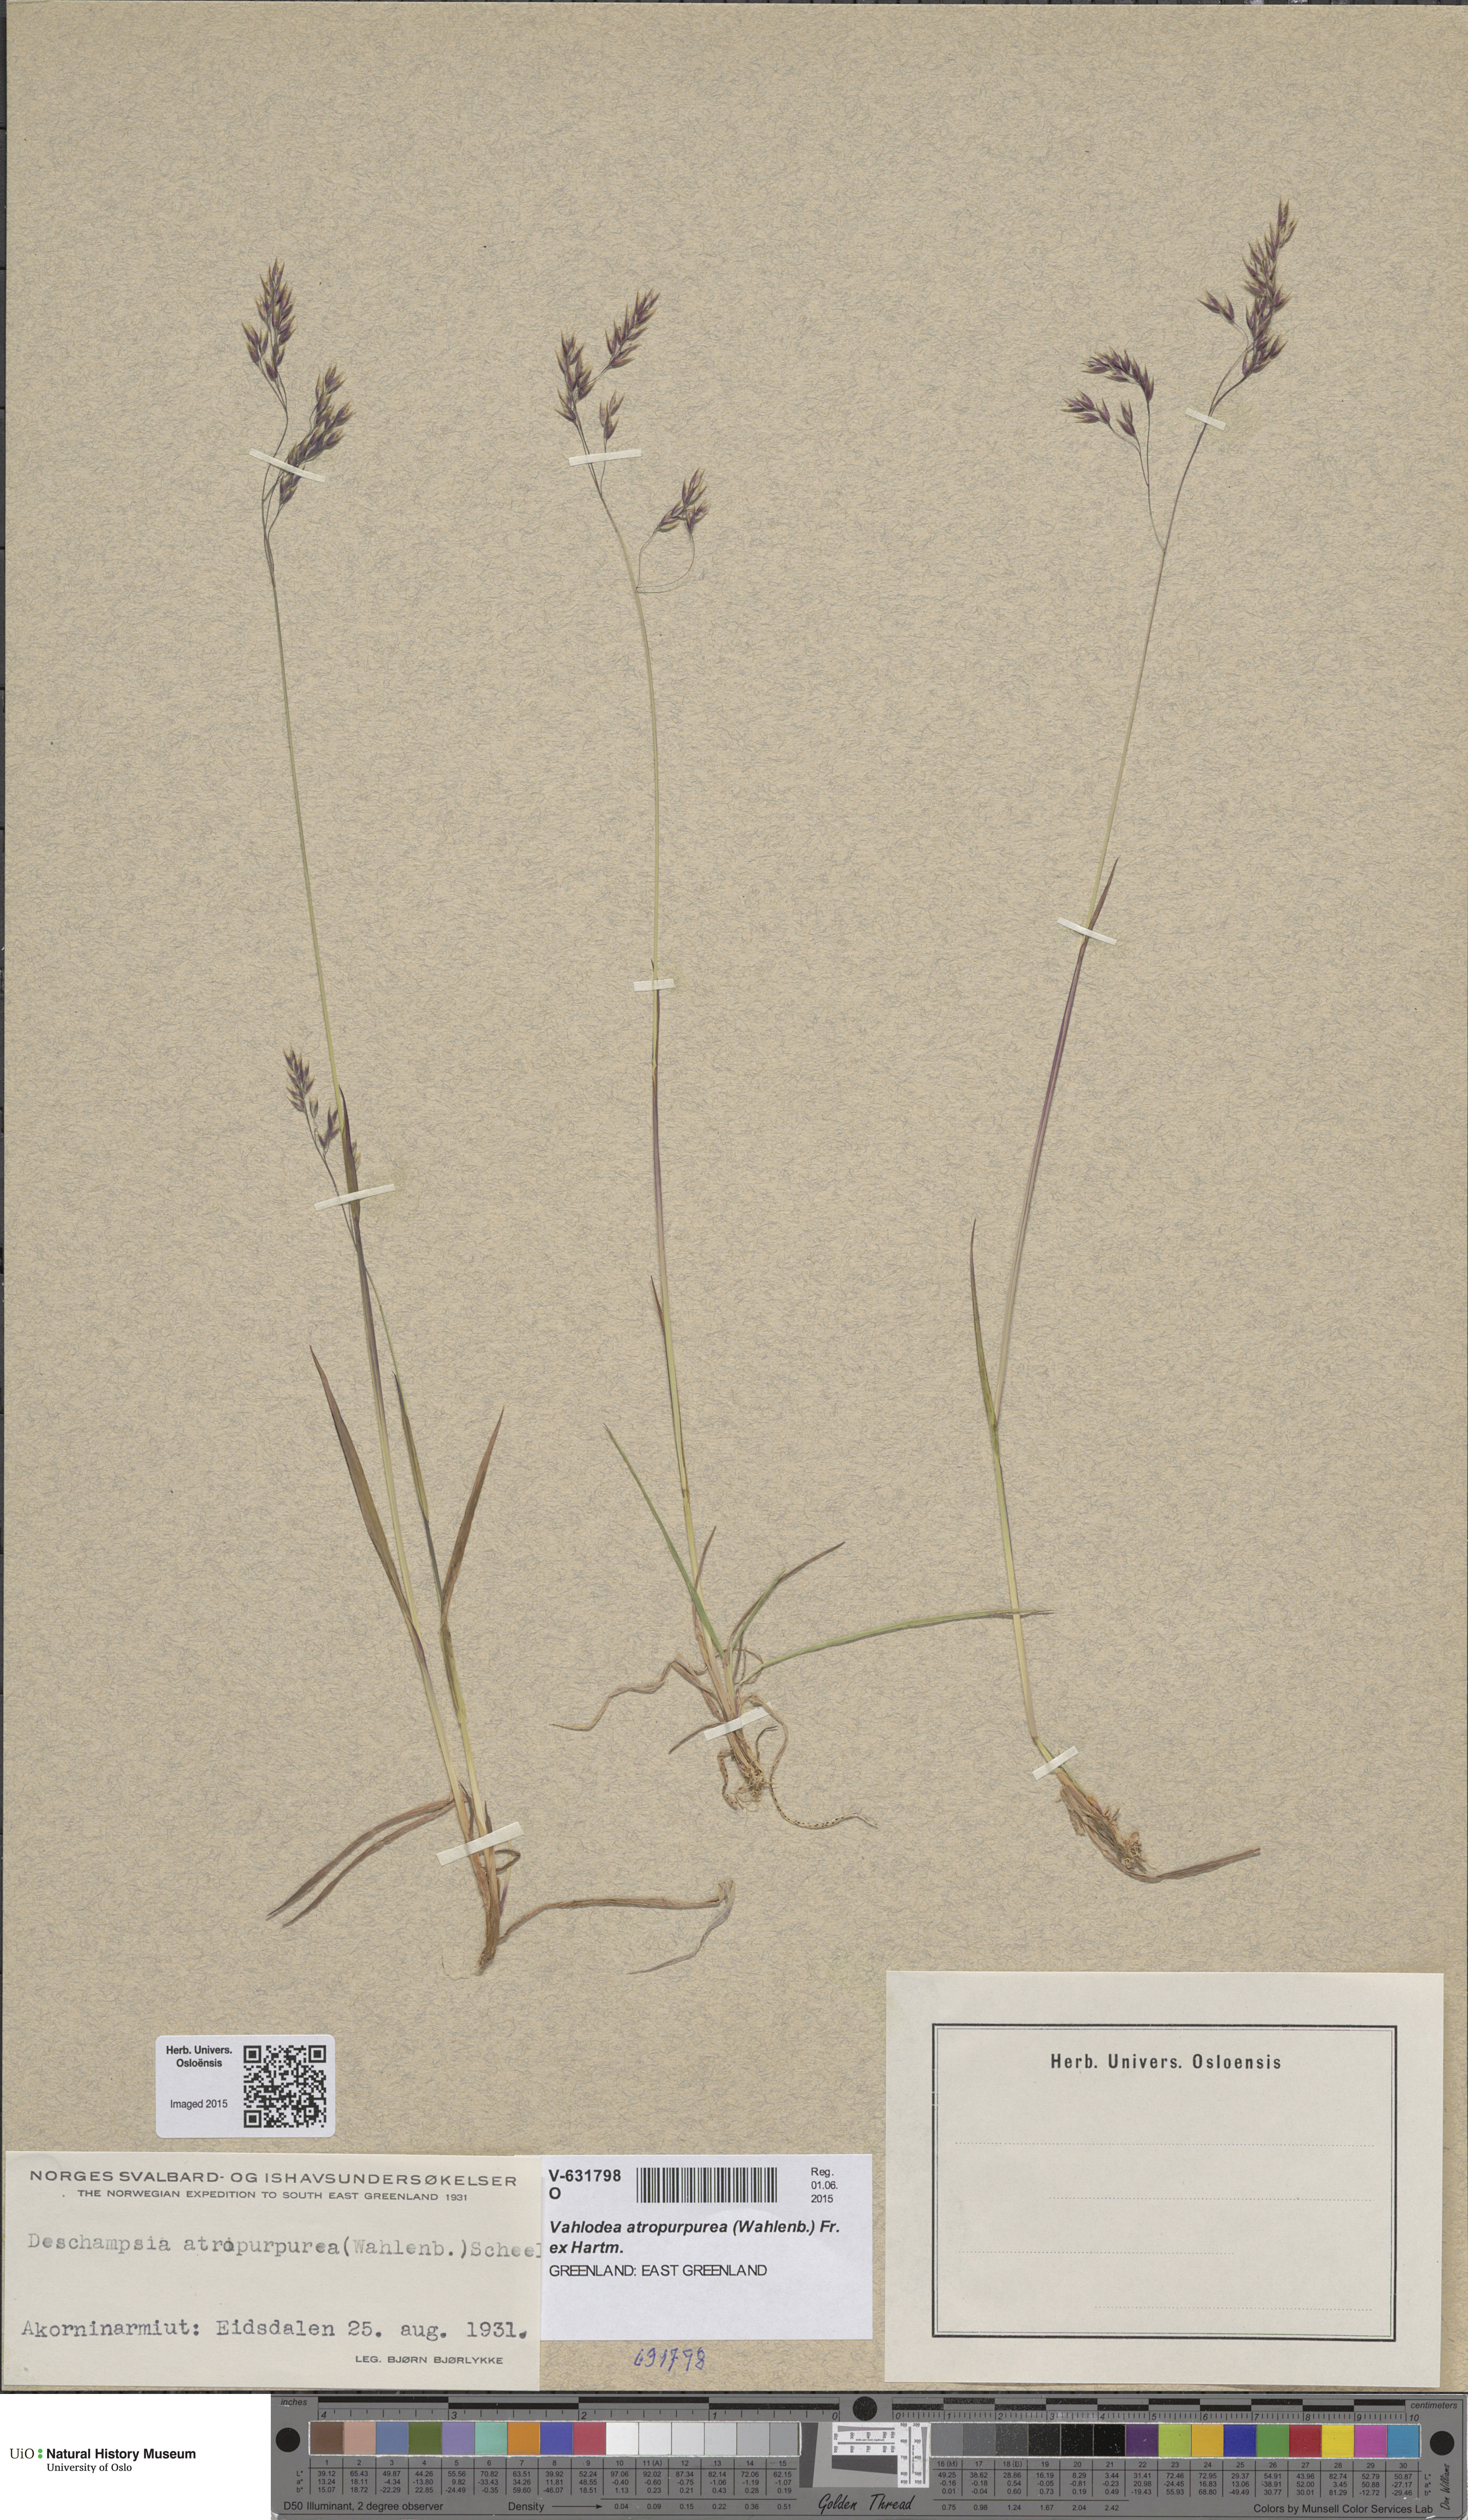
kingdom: Plantae
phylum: Tracheophyta
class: Liliopsida
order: Poales
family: Poaceae
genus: Vahlodea
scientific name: Vahlodea atropurpurea
